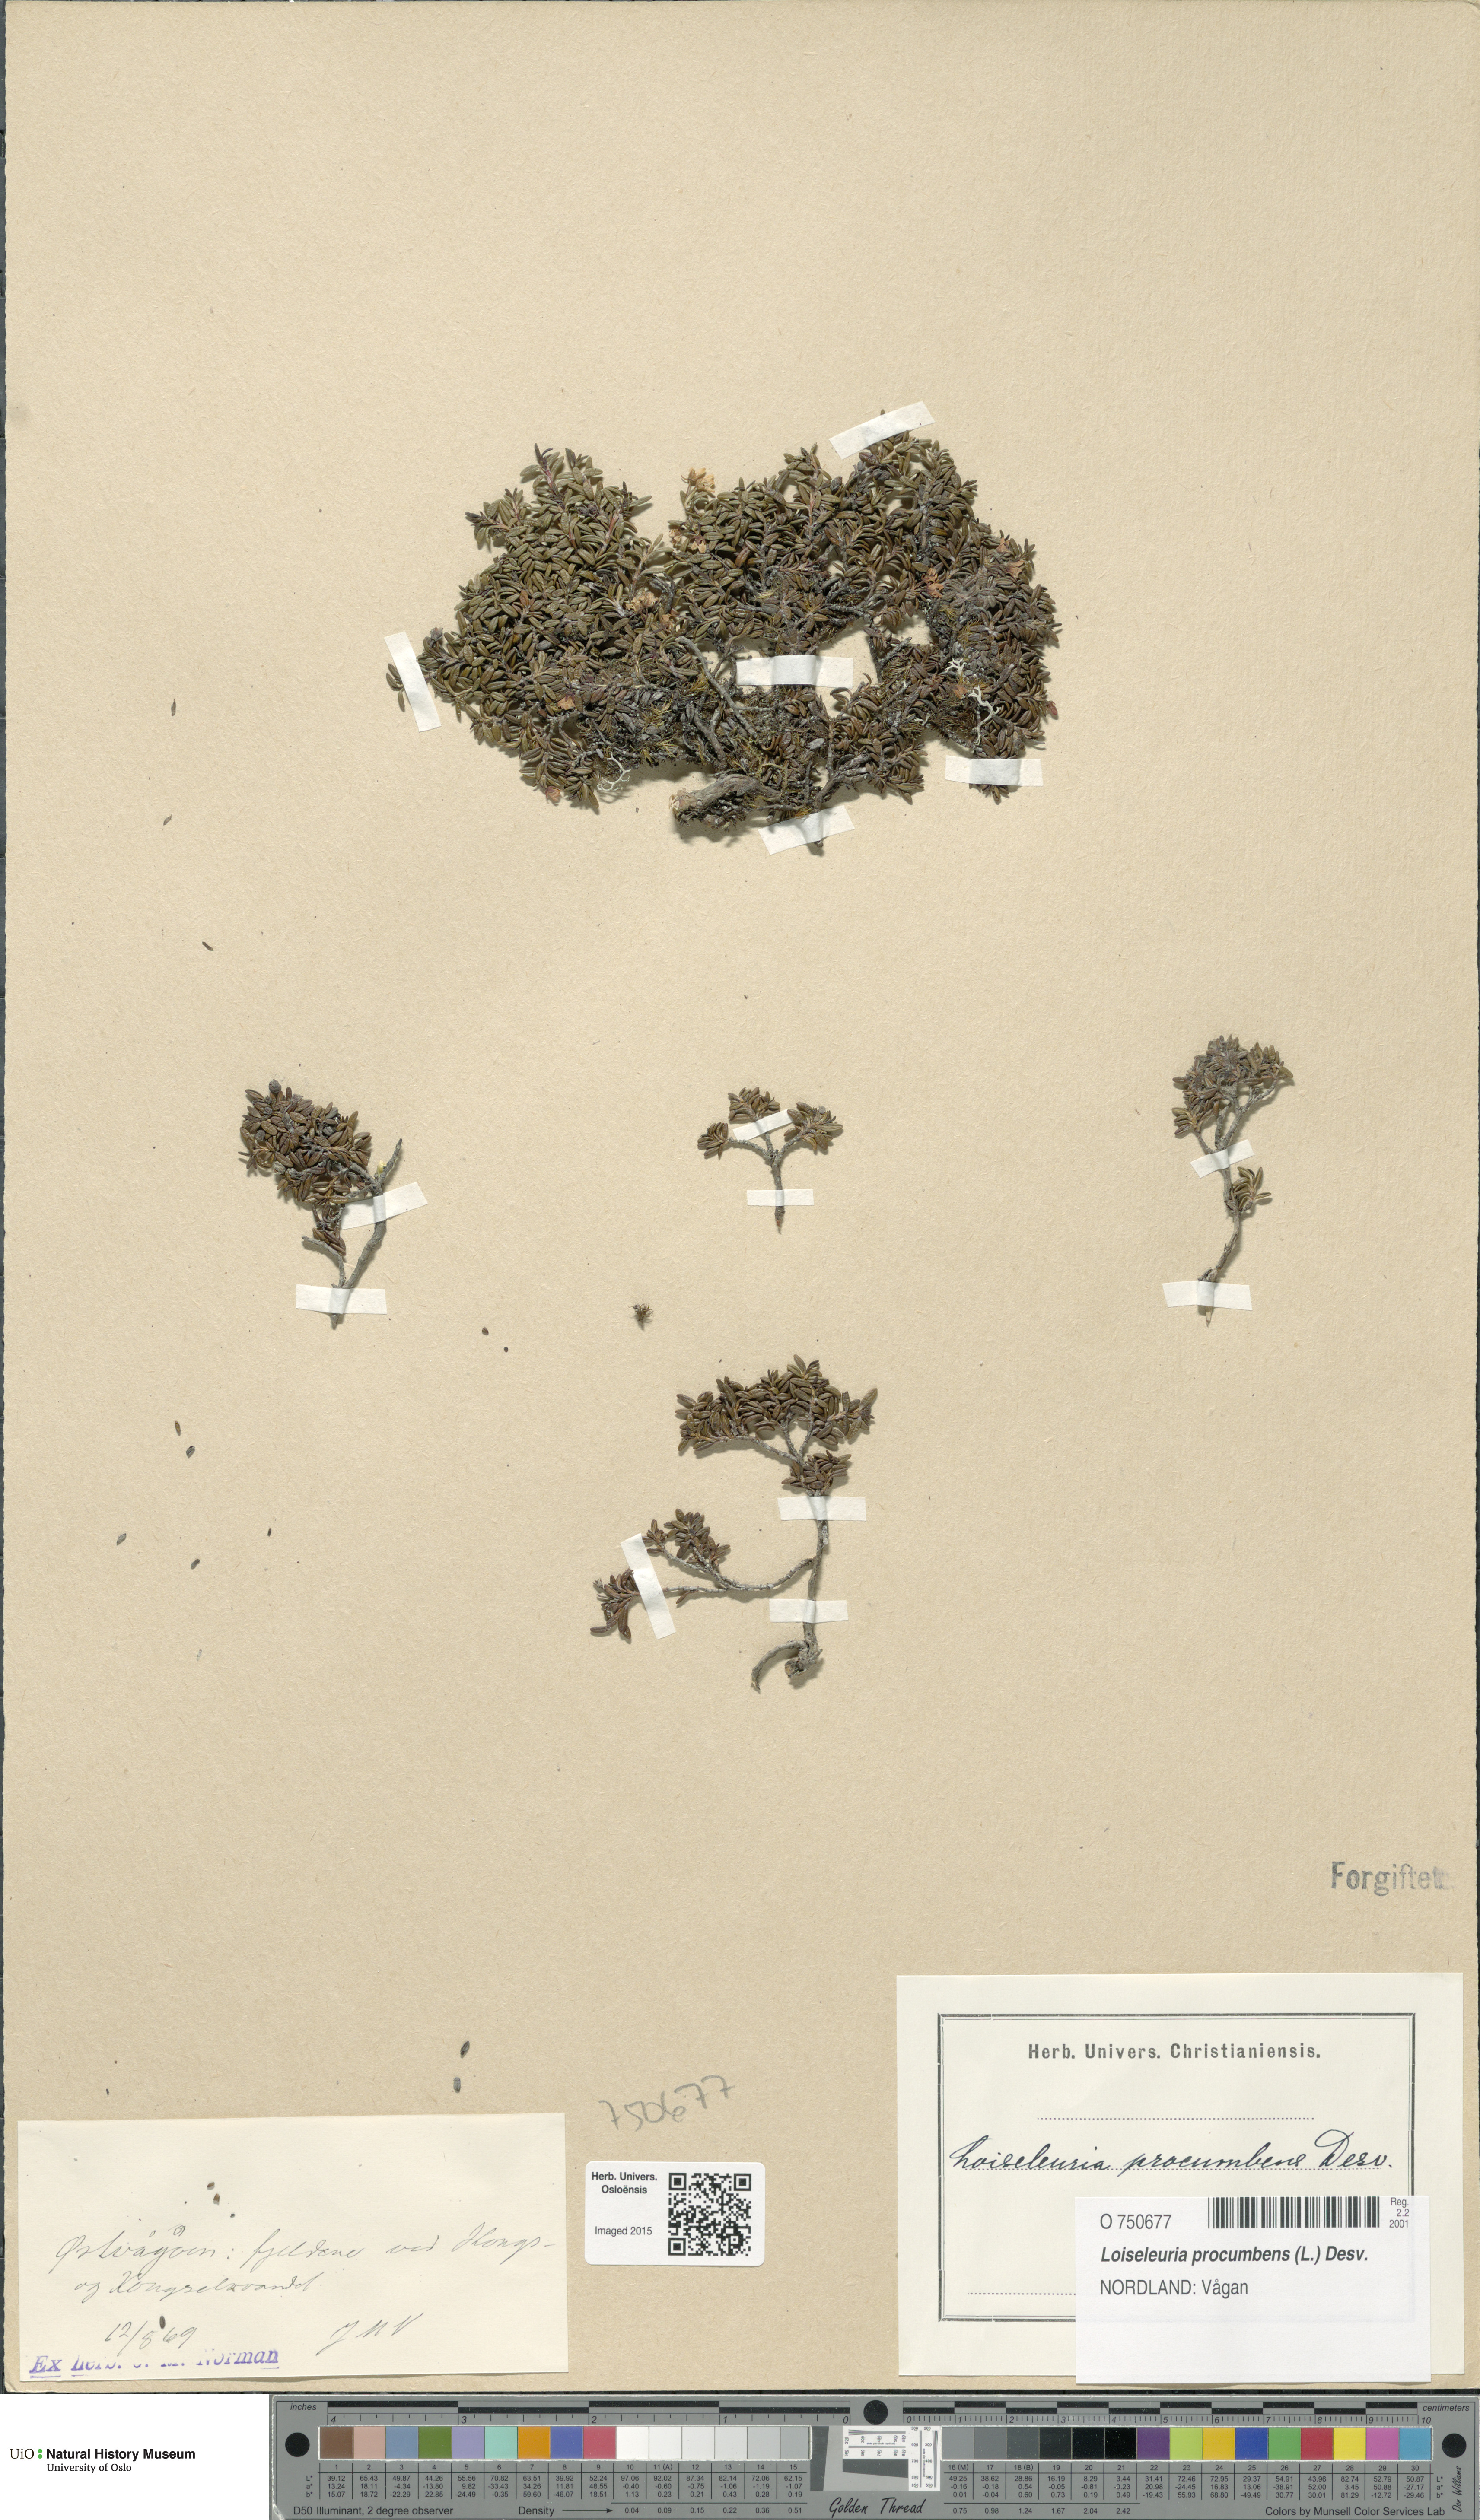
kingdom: Plantae
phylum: Tracheophyta
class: Magnoliopsida
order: Ericales
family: Ericaceae
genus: Kalmia
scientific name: Kalmia procumbens
